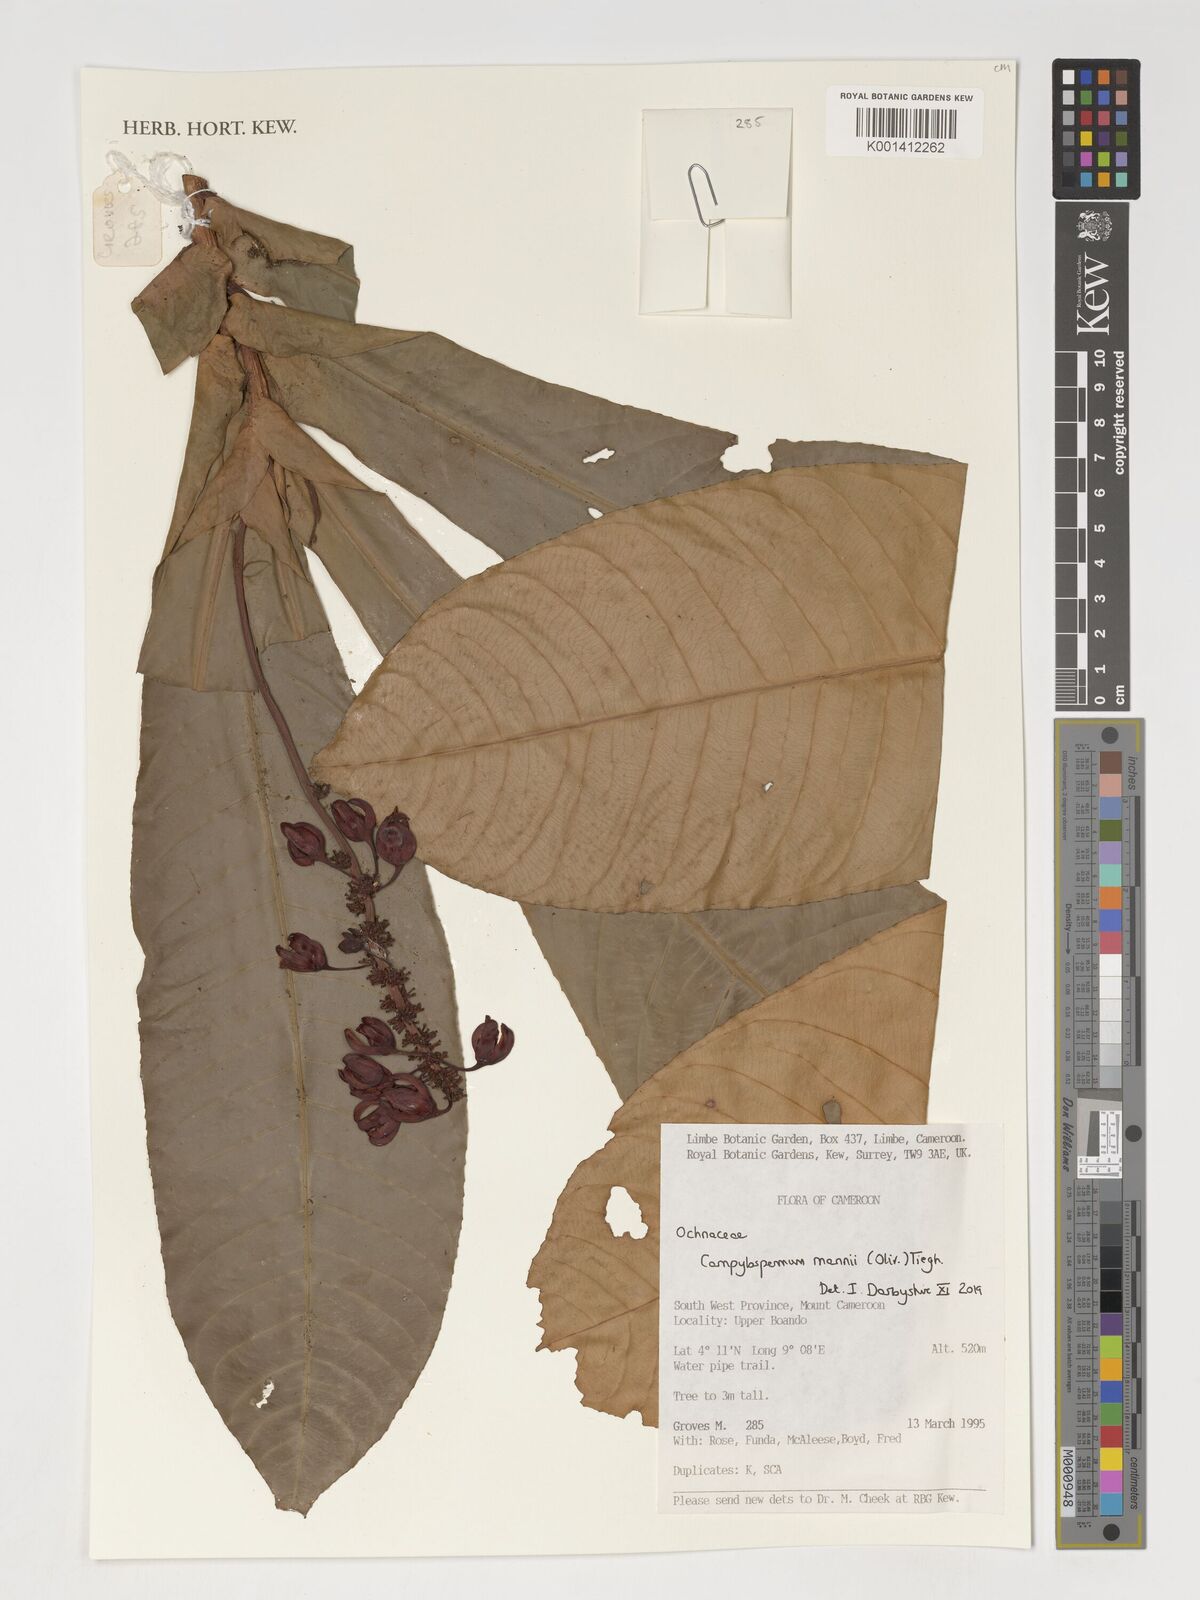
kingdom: Plantae
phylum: Tracheophyta
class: Magnoliopsida
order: Malpighiales
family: Ochnaceae
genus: Campylospermum
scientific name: Campylospermum mannii
